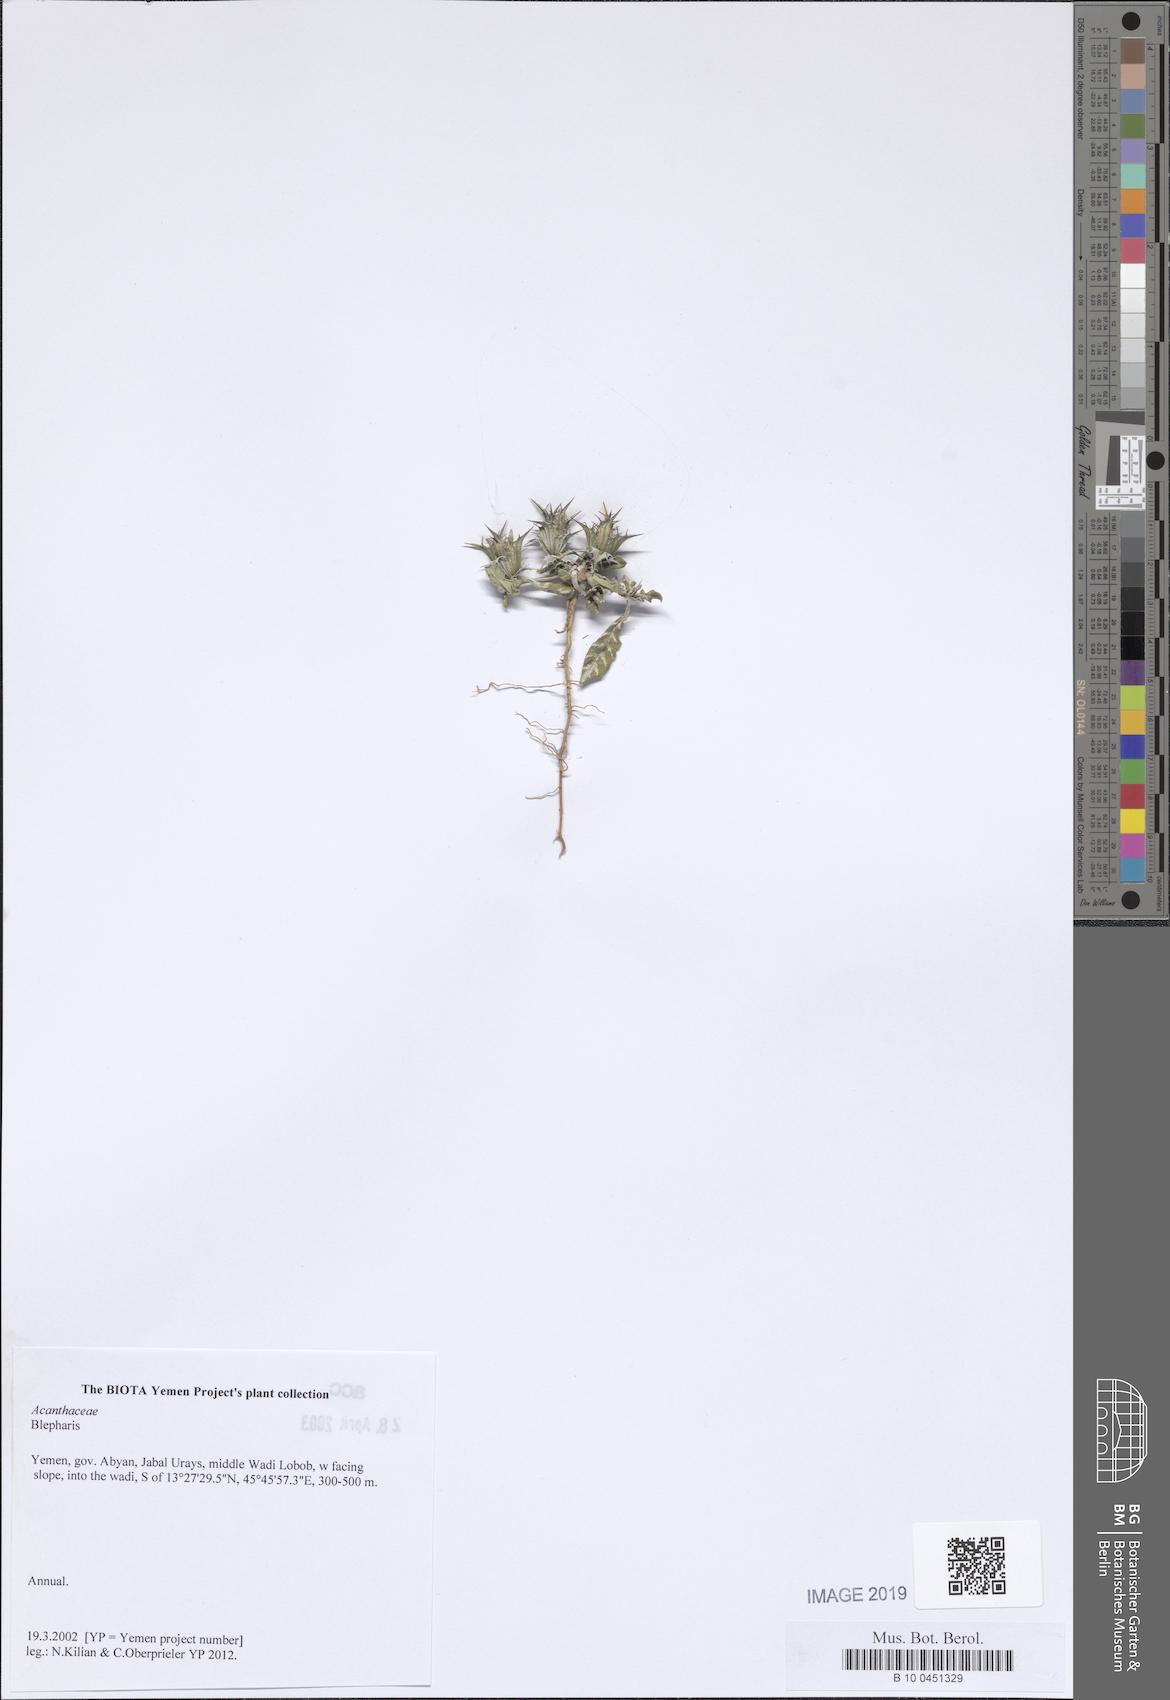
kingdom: Plantae
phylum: Tracheophyta
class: Magnoliopsida
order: Lamiales
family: Acanthaceae
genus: Blepharis
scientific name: Blepharis
